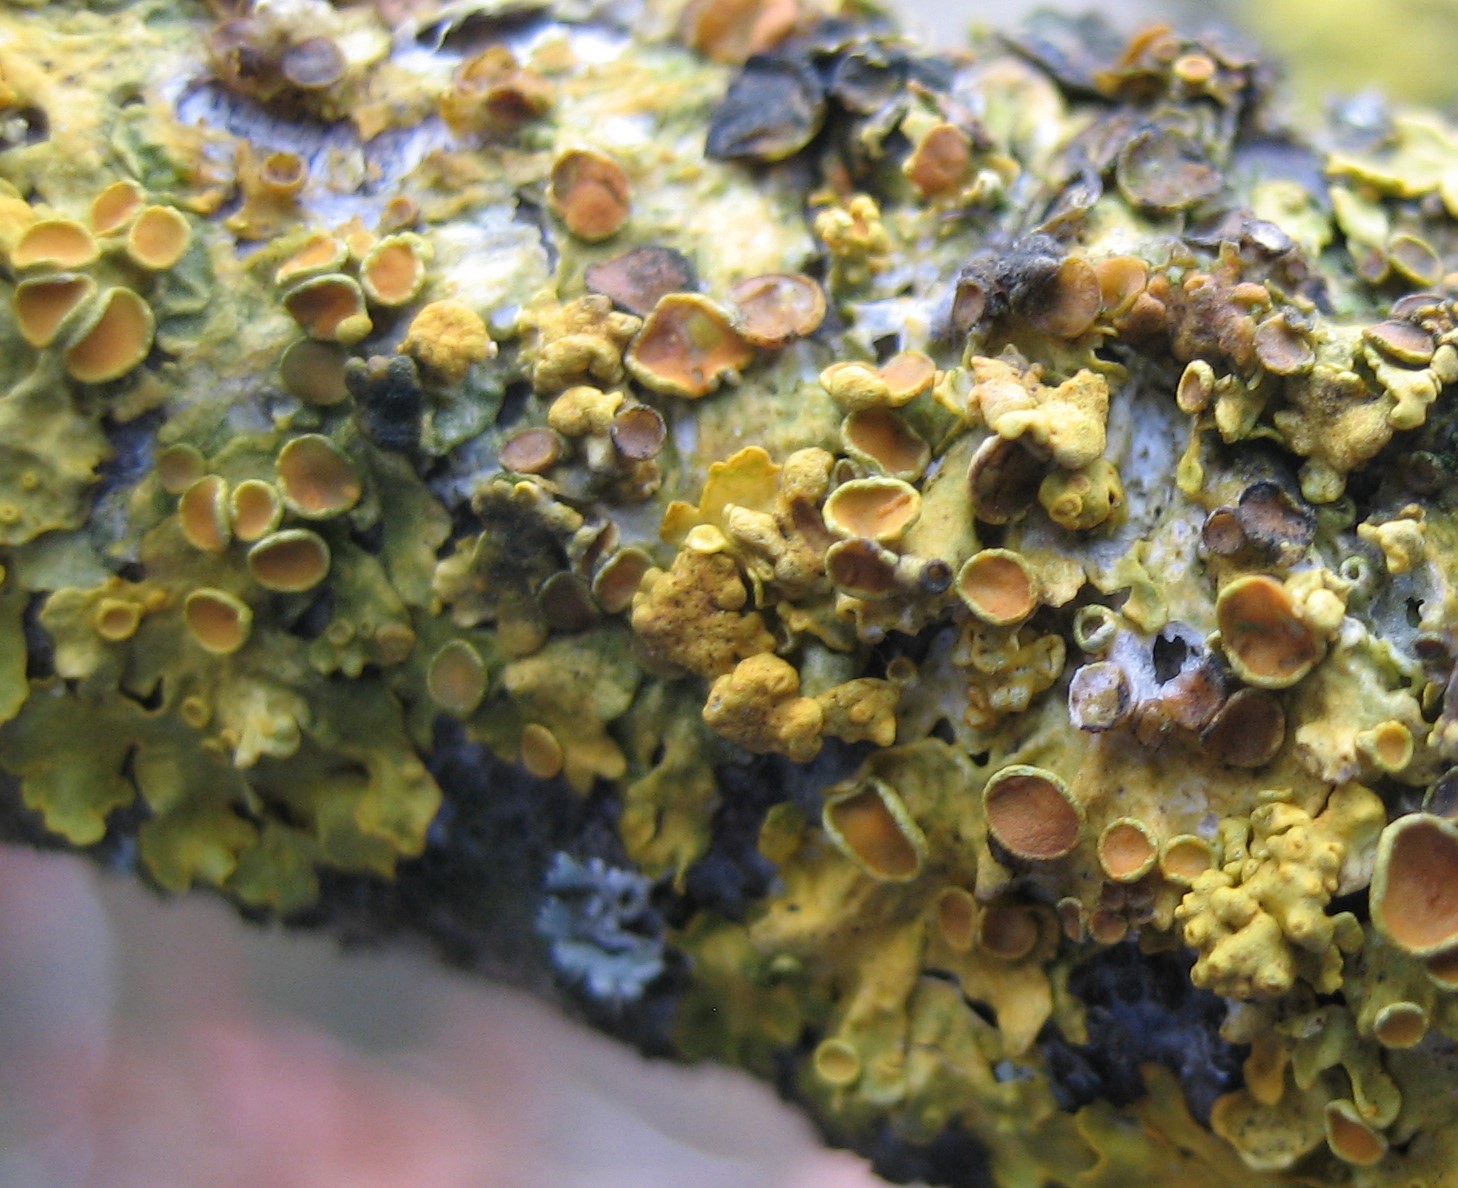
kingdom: Fungi
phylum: Ascomycota
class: Eurotiomycetes
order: Verrucariales
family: Verrucariaceae
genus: Telogalla
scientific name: Telogalla olivieri
